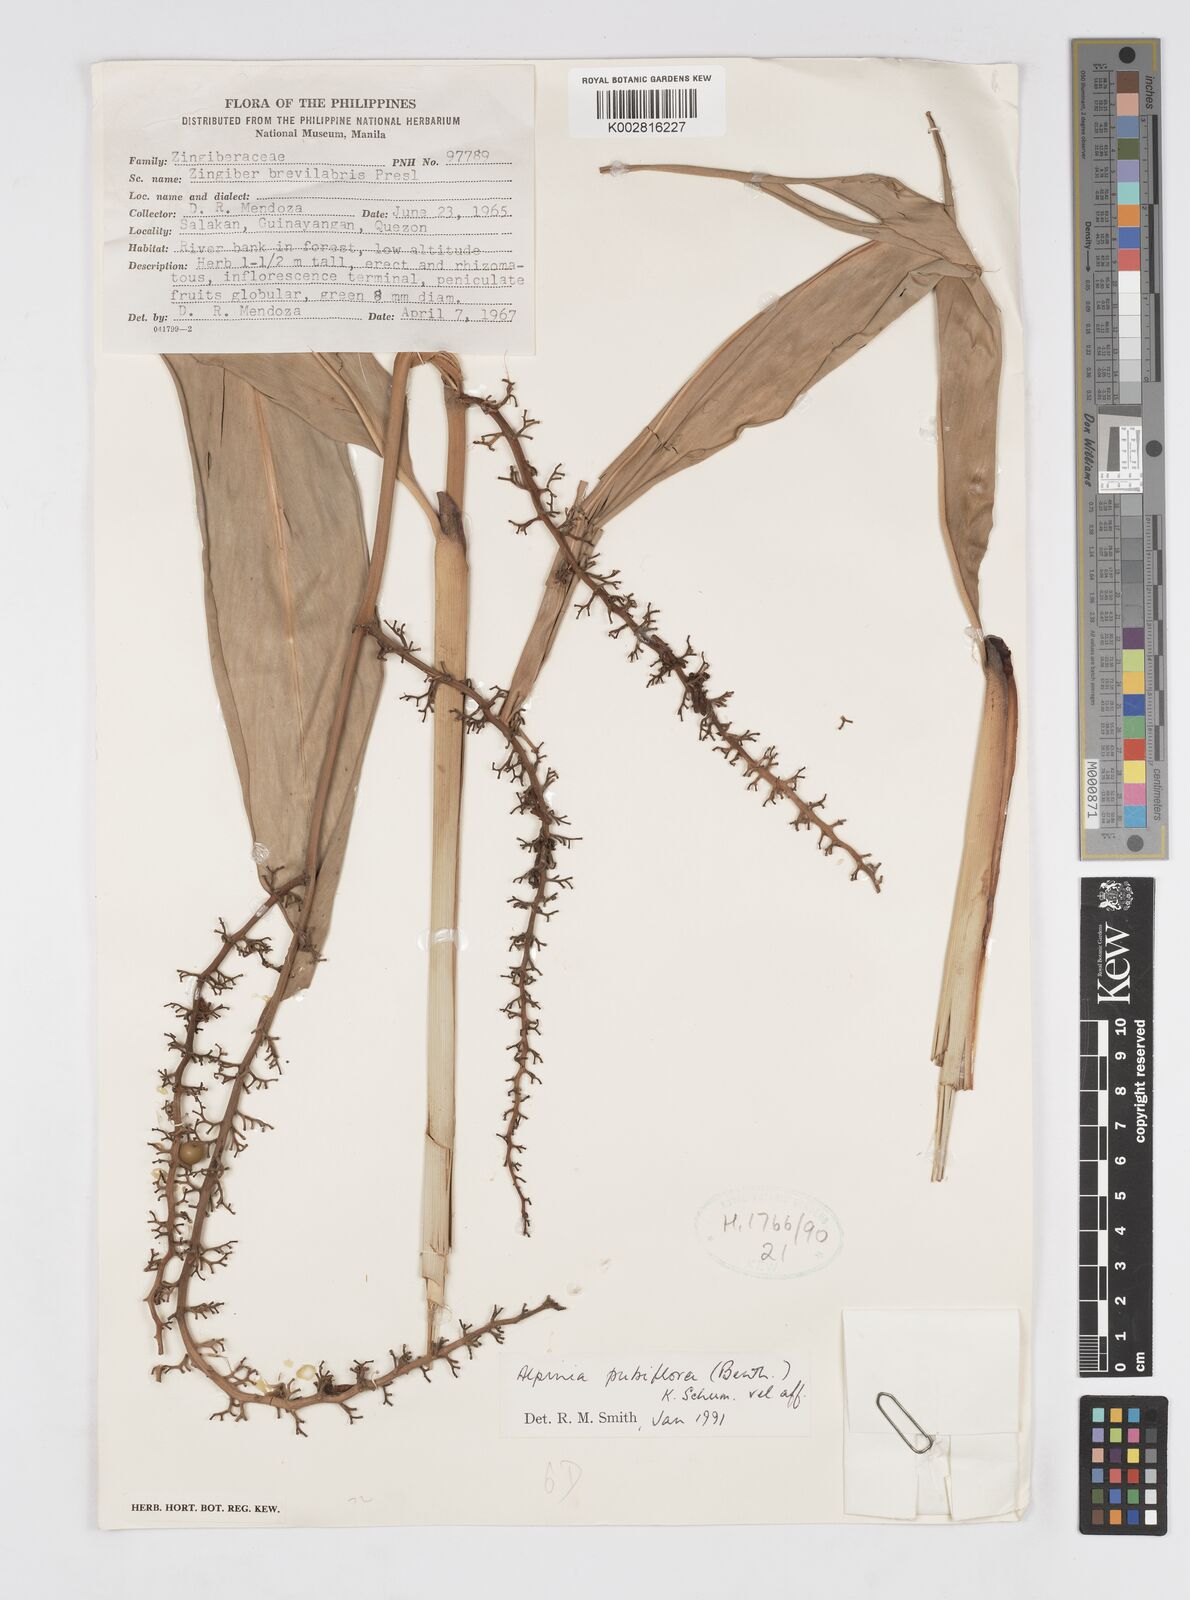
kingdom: Plantae
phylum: Tracheophyta
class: Liliopsida
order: Zingiberales
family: Zingiberaceae
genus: Alpinia
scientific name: Alpinia pubiflora
